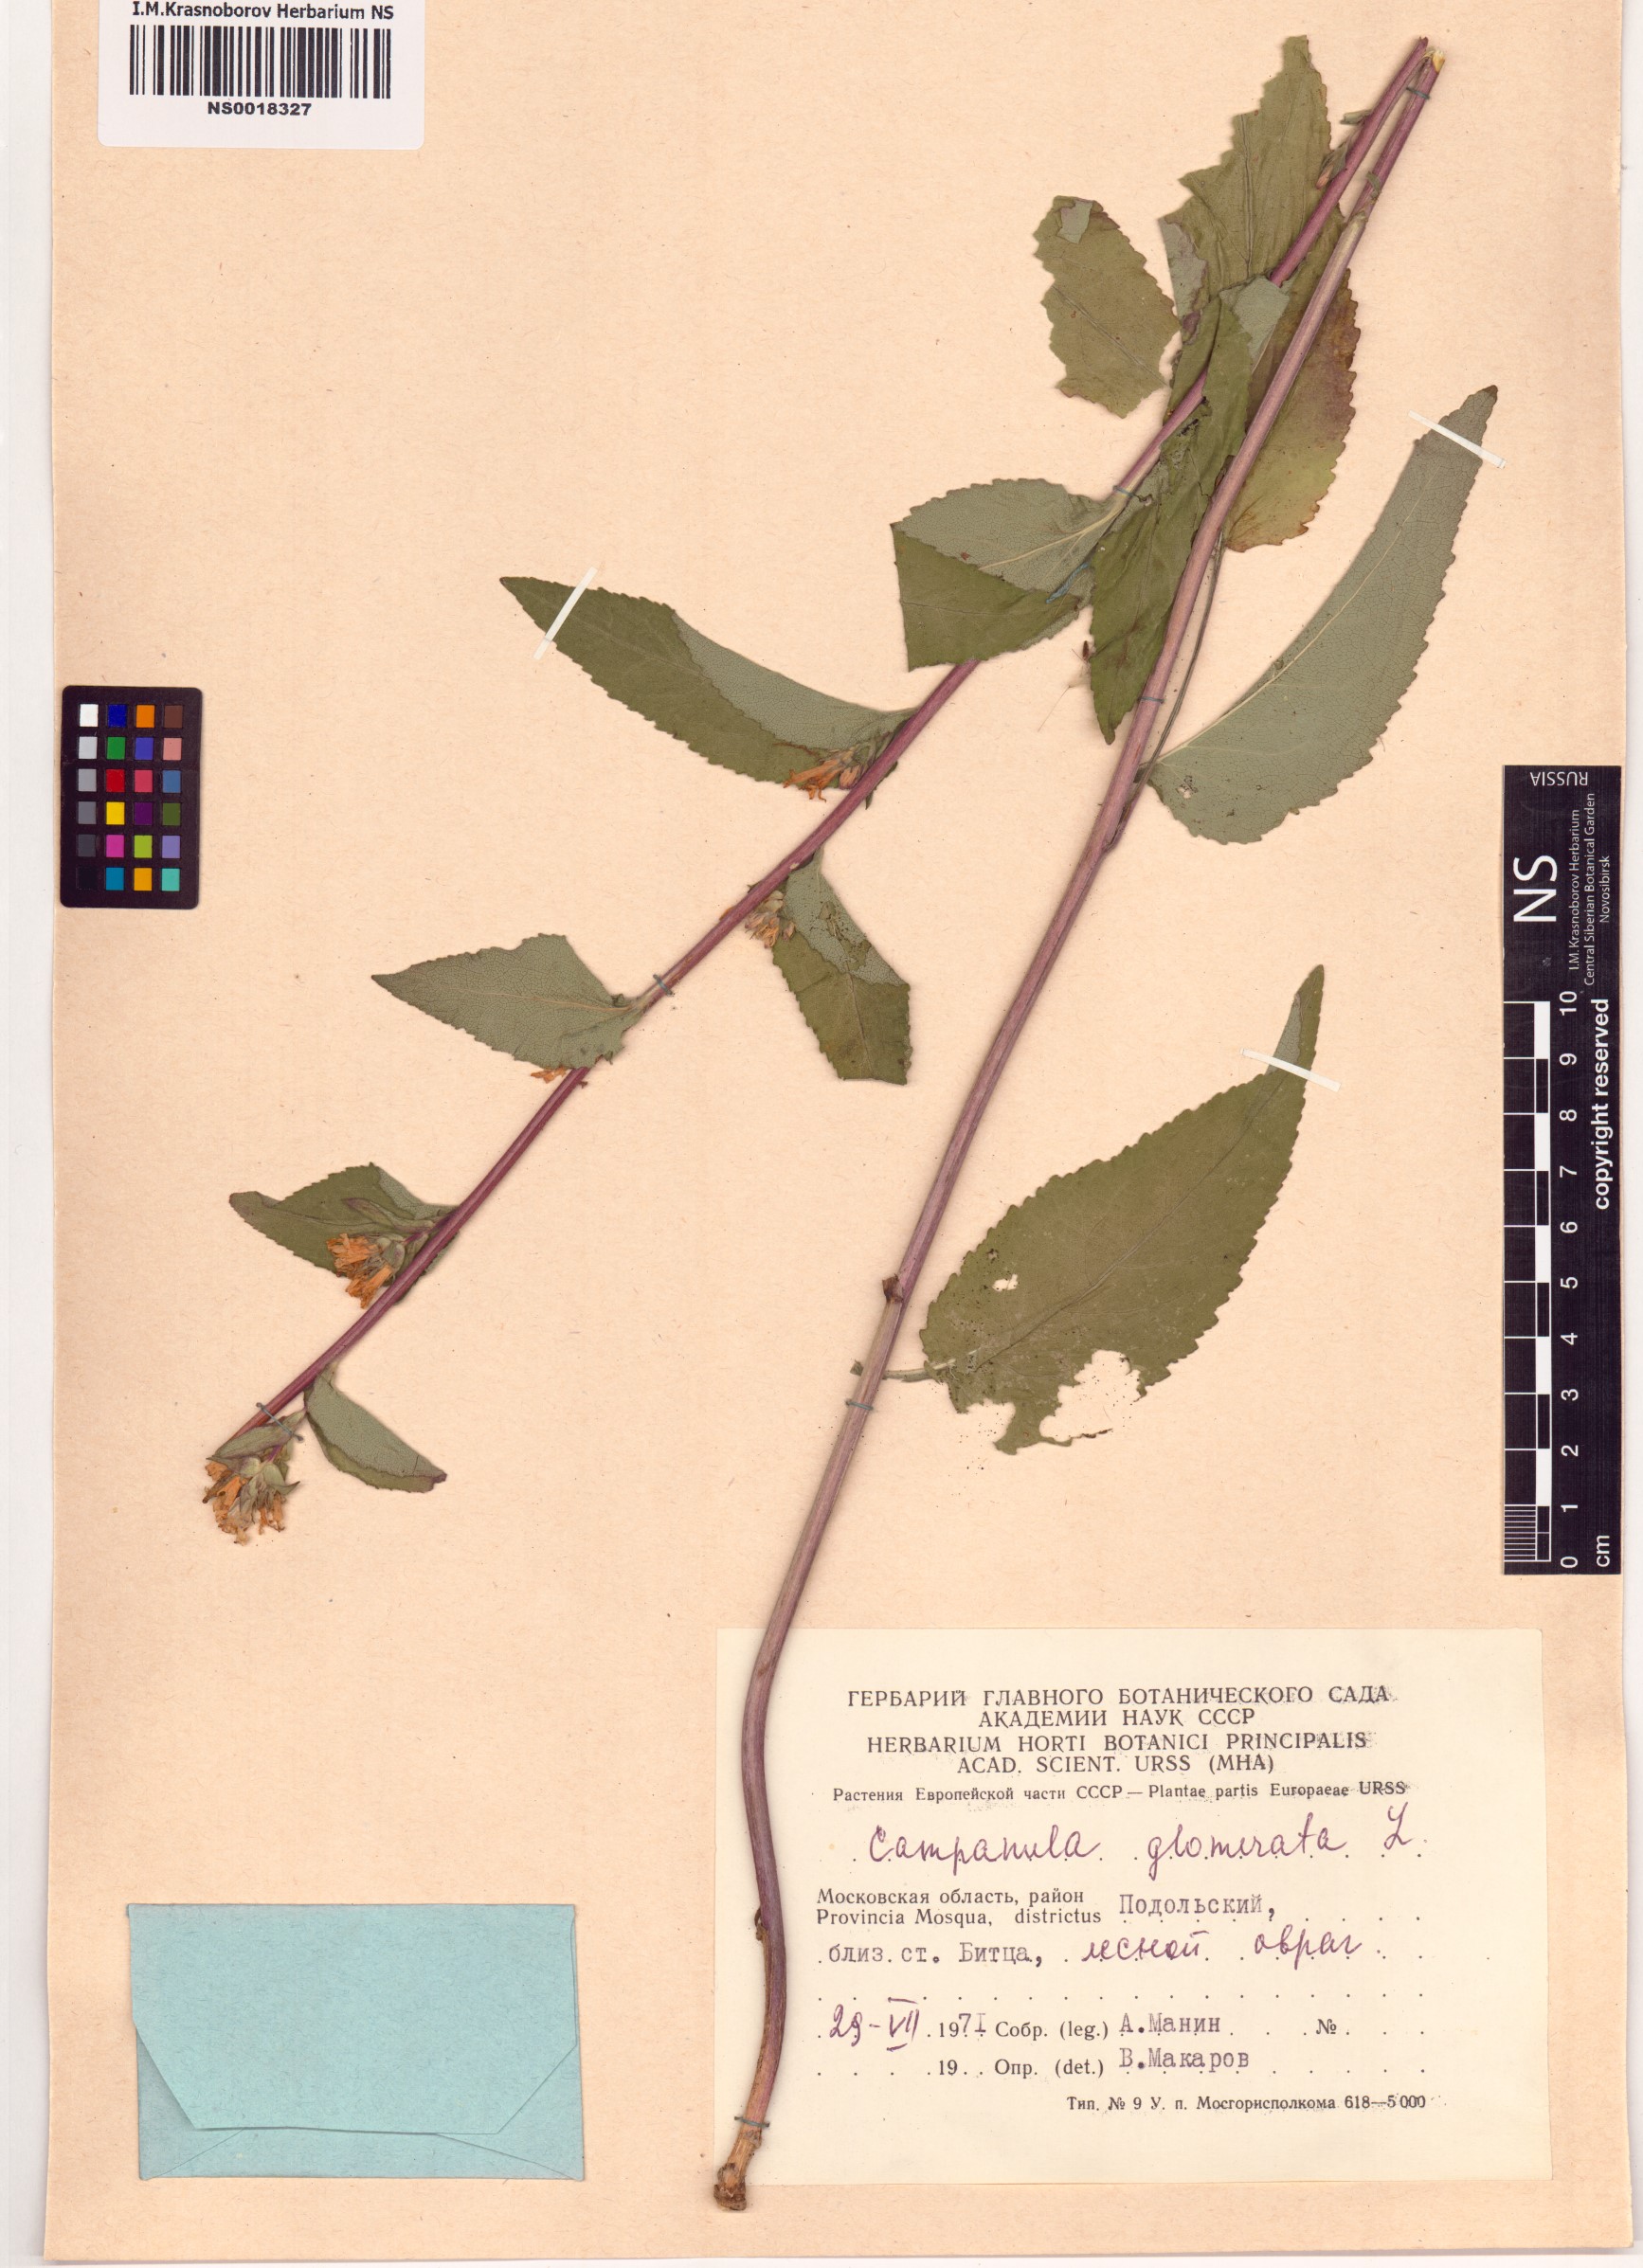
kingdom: Plantae
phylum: Tracheophyta
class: Magnoliopsida
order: Asterales
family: Campanulaceae
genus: Campanula
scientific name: Campanula glomerata
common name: Clustered bellflower
